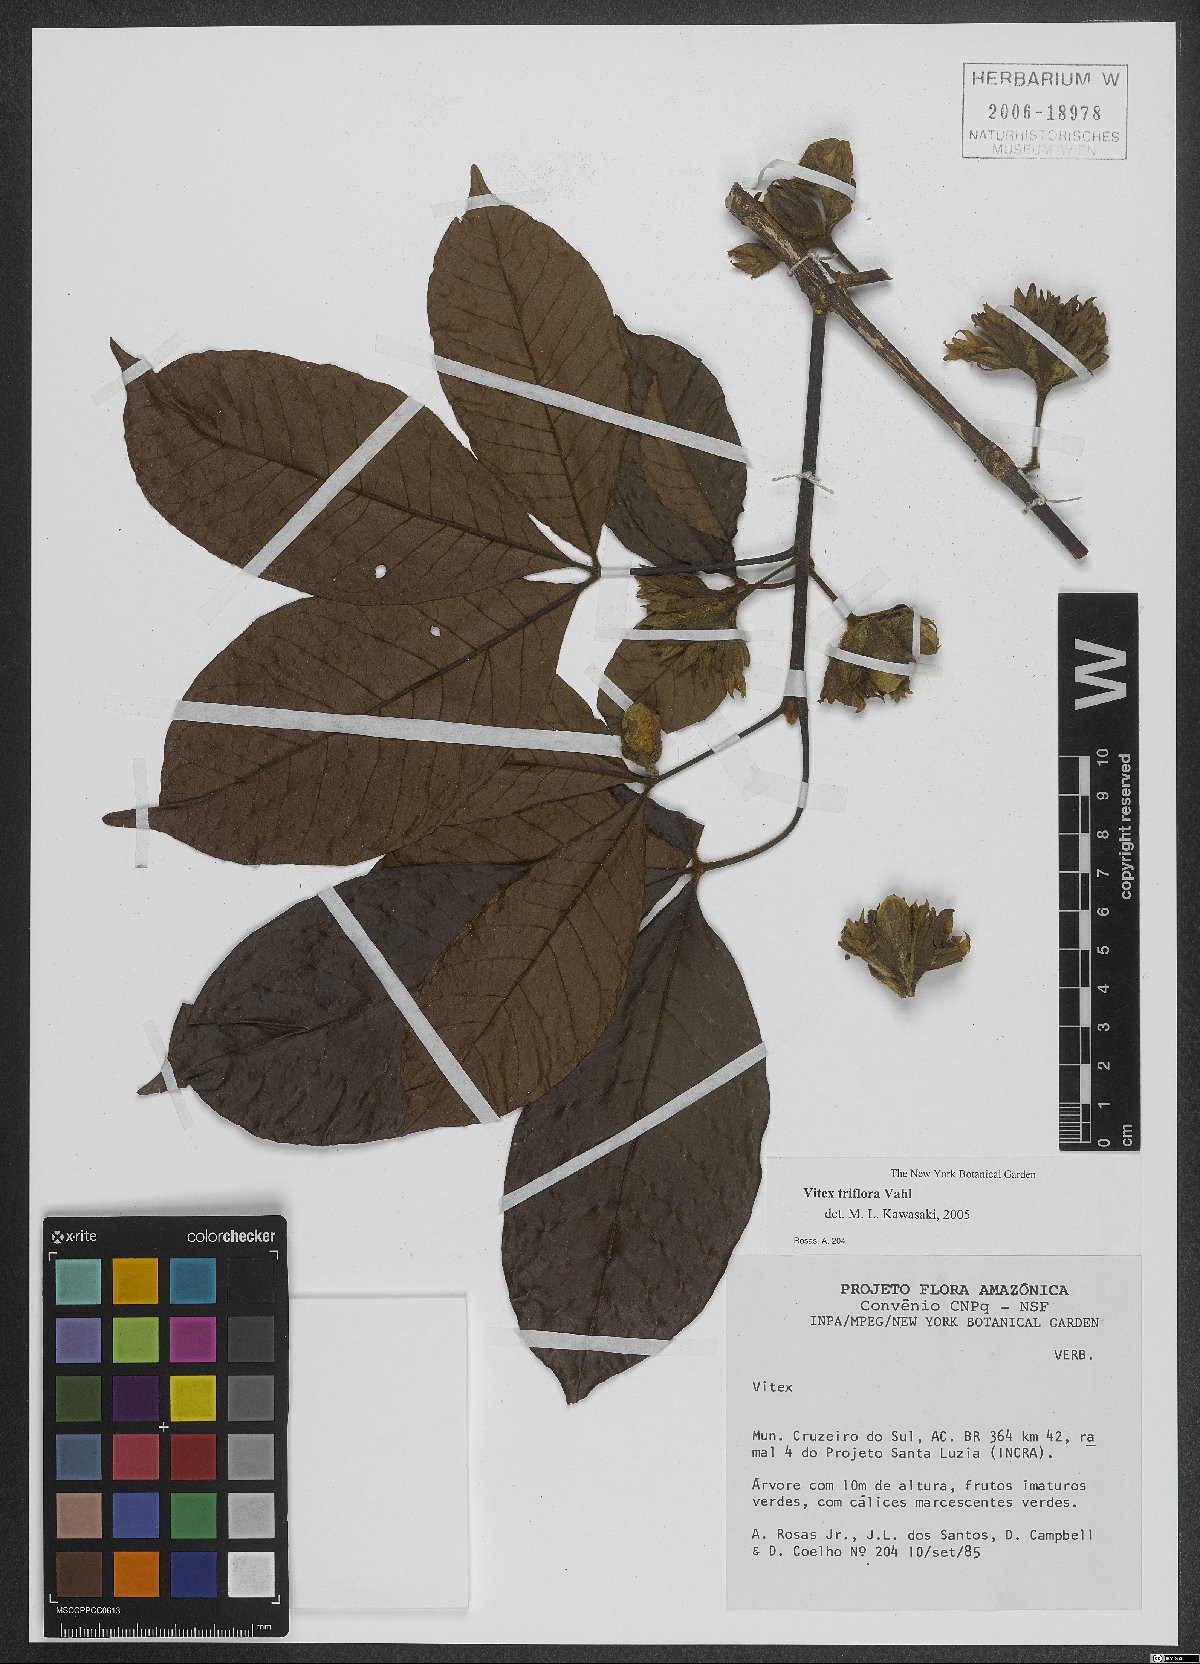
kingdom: Plantae
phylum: Tracheophyta
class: Magnoliopsida
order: Lamiales
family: Lamiaceae
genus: Vitex
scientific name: Vitex triflora
